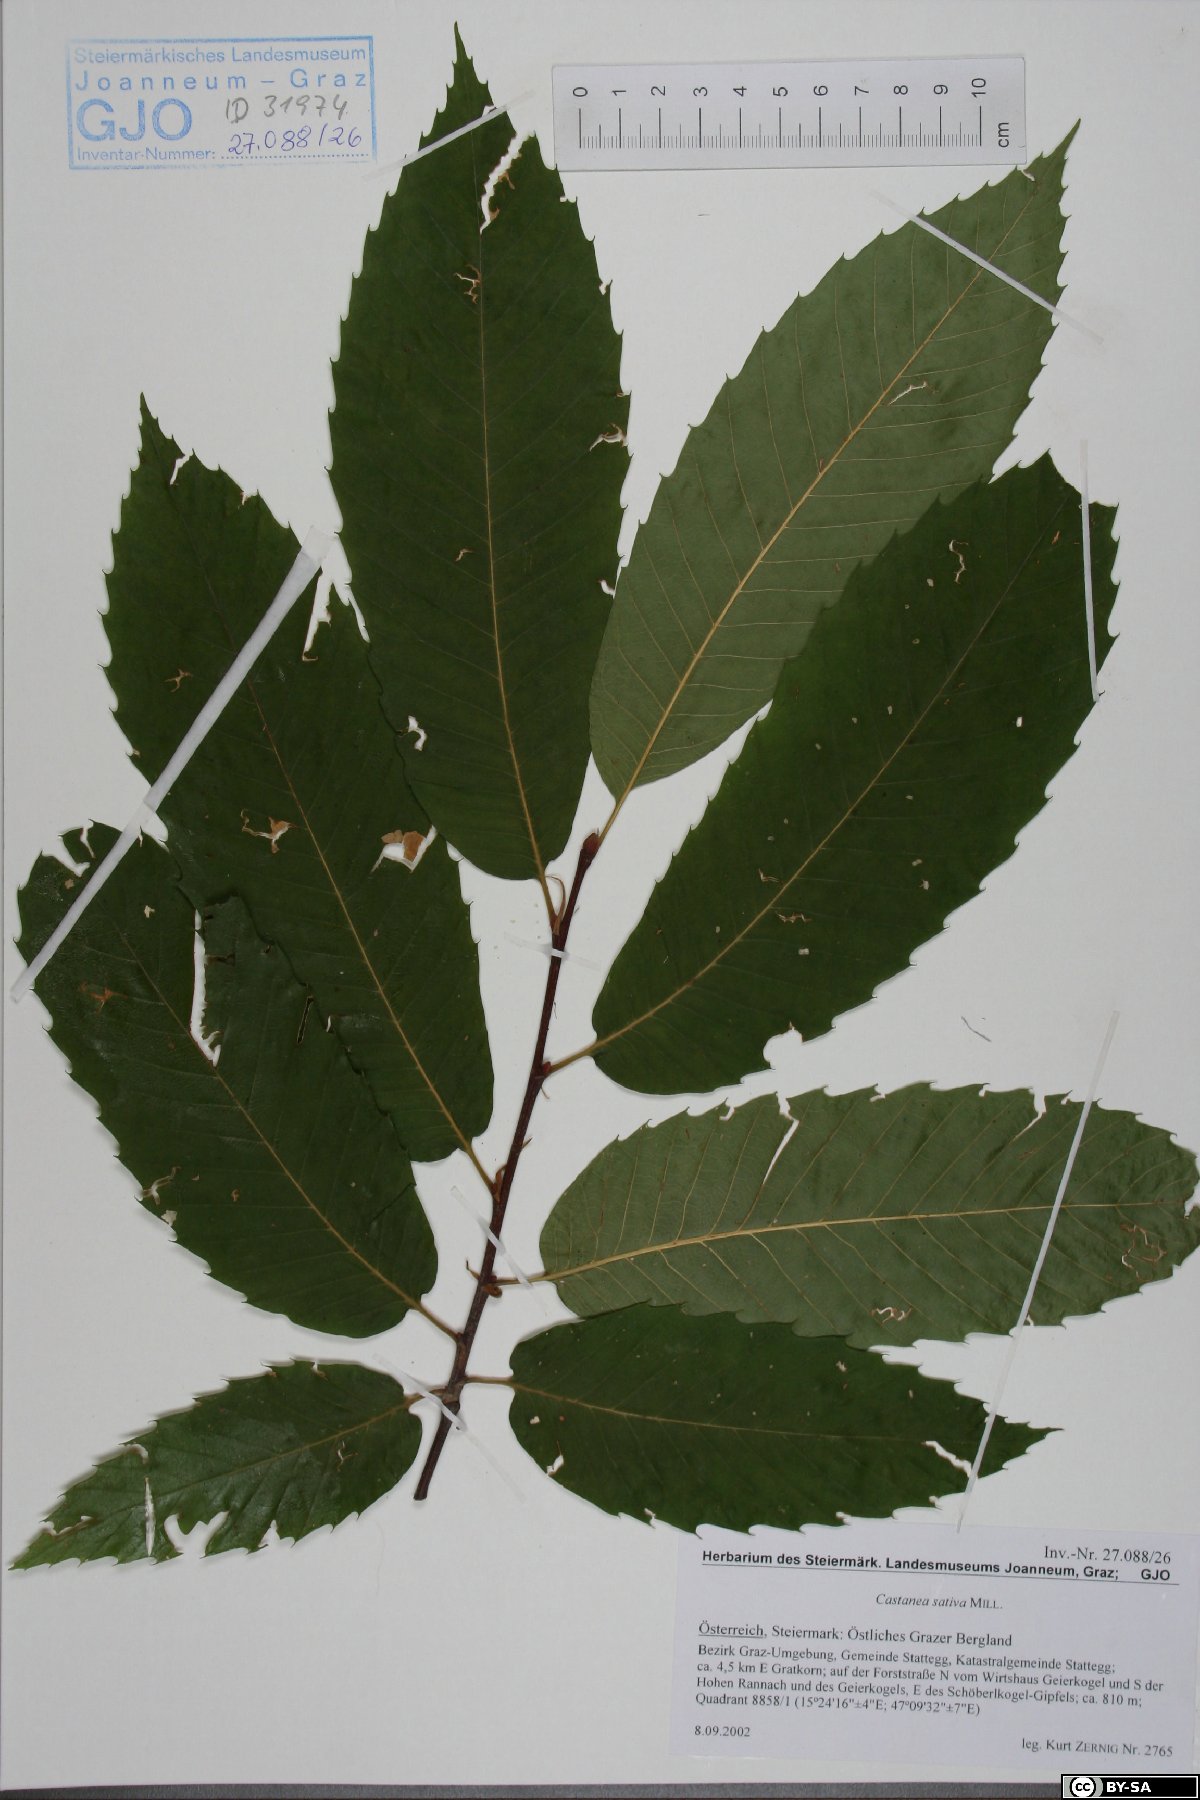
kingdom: Plantae
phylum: Tracheophyta
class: Magnoliopsida
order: Fagales
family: Fagaceae
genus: Castanea
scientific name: Castanea sativa
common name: Sweet chestnut
